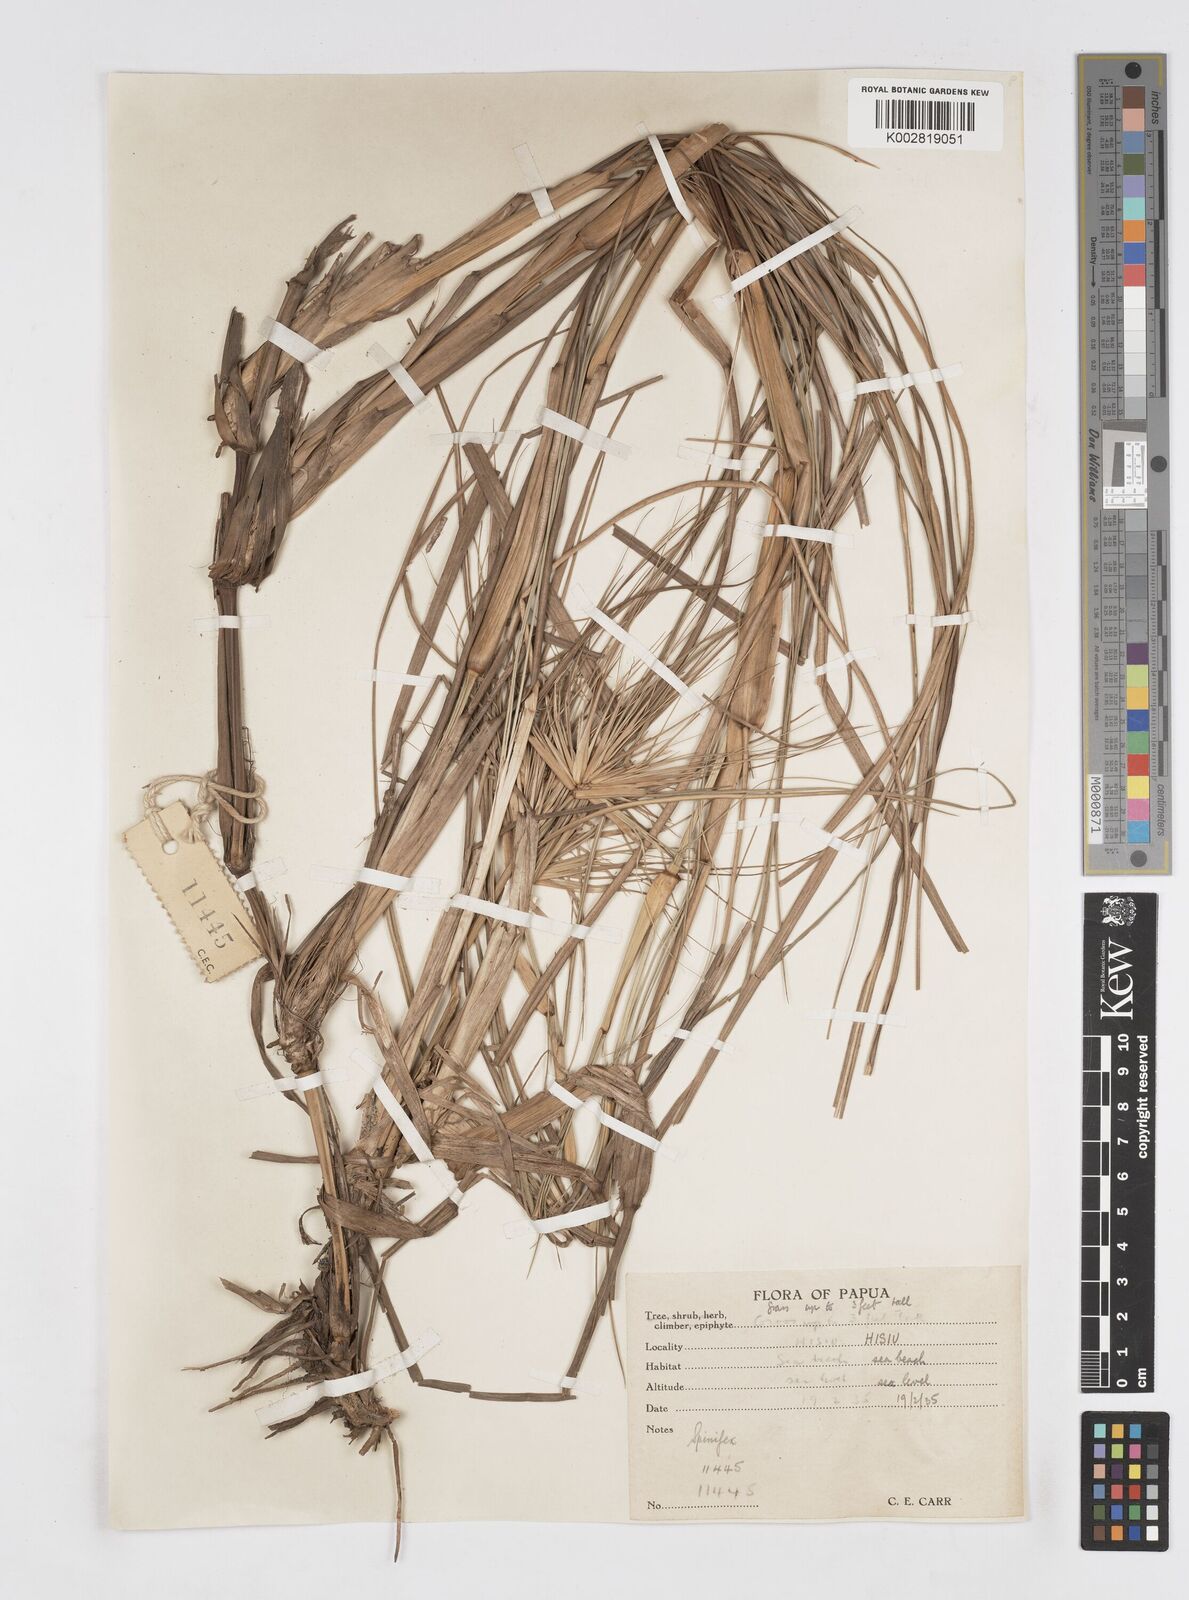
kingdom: Plantae
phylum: Tracheophyta
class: Liliopsida
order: Poales
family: Poaceae
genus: Spinifex
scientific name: Spinifex longifolius
